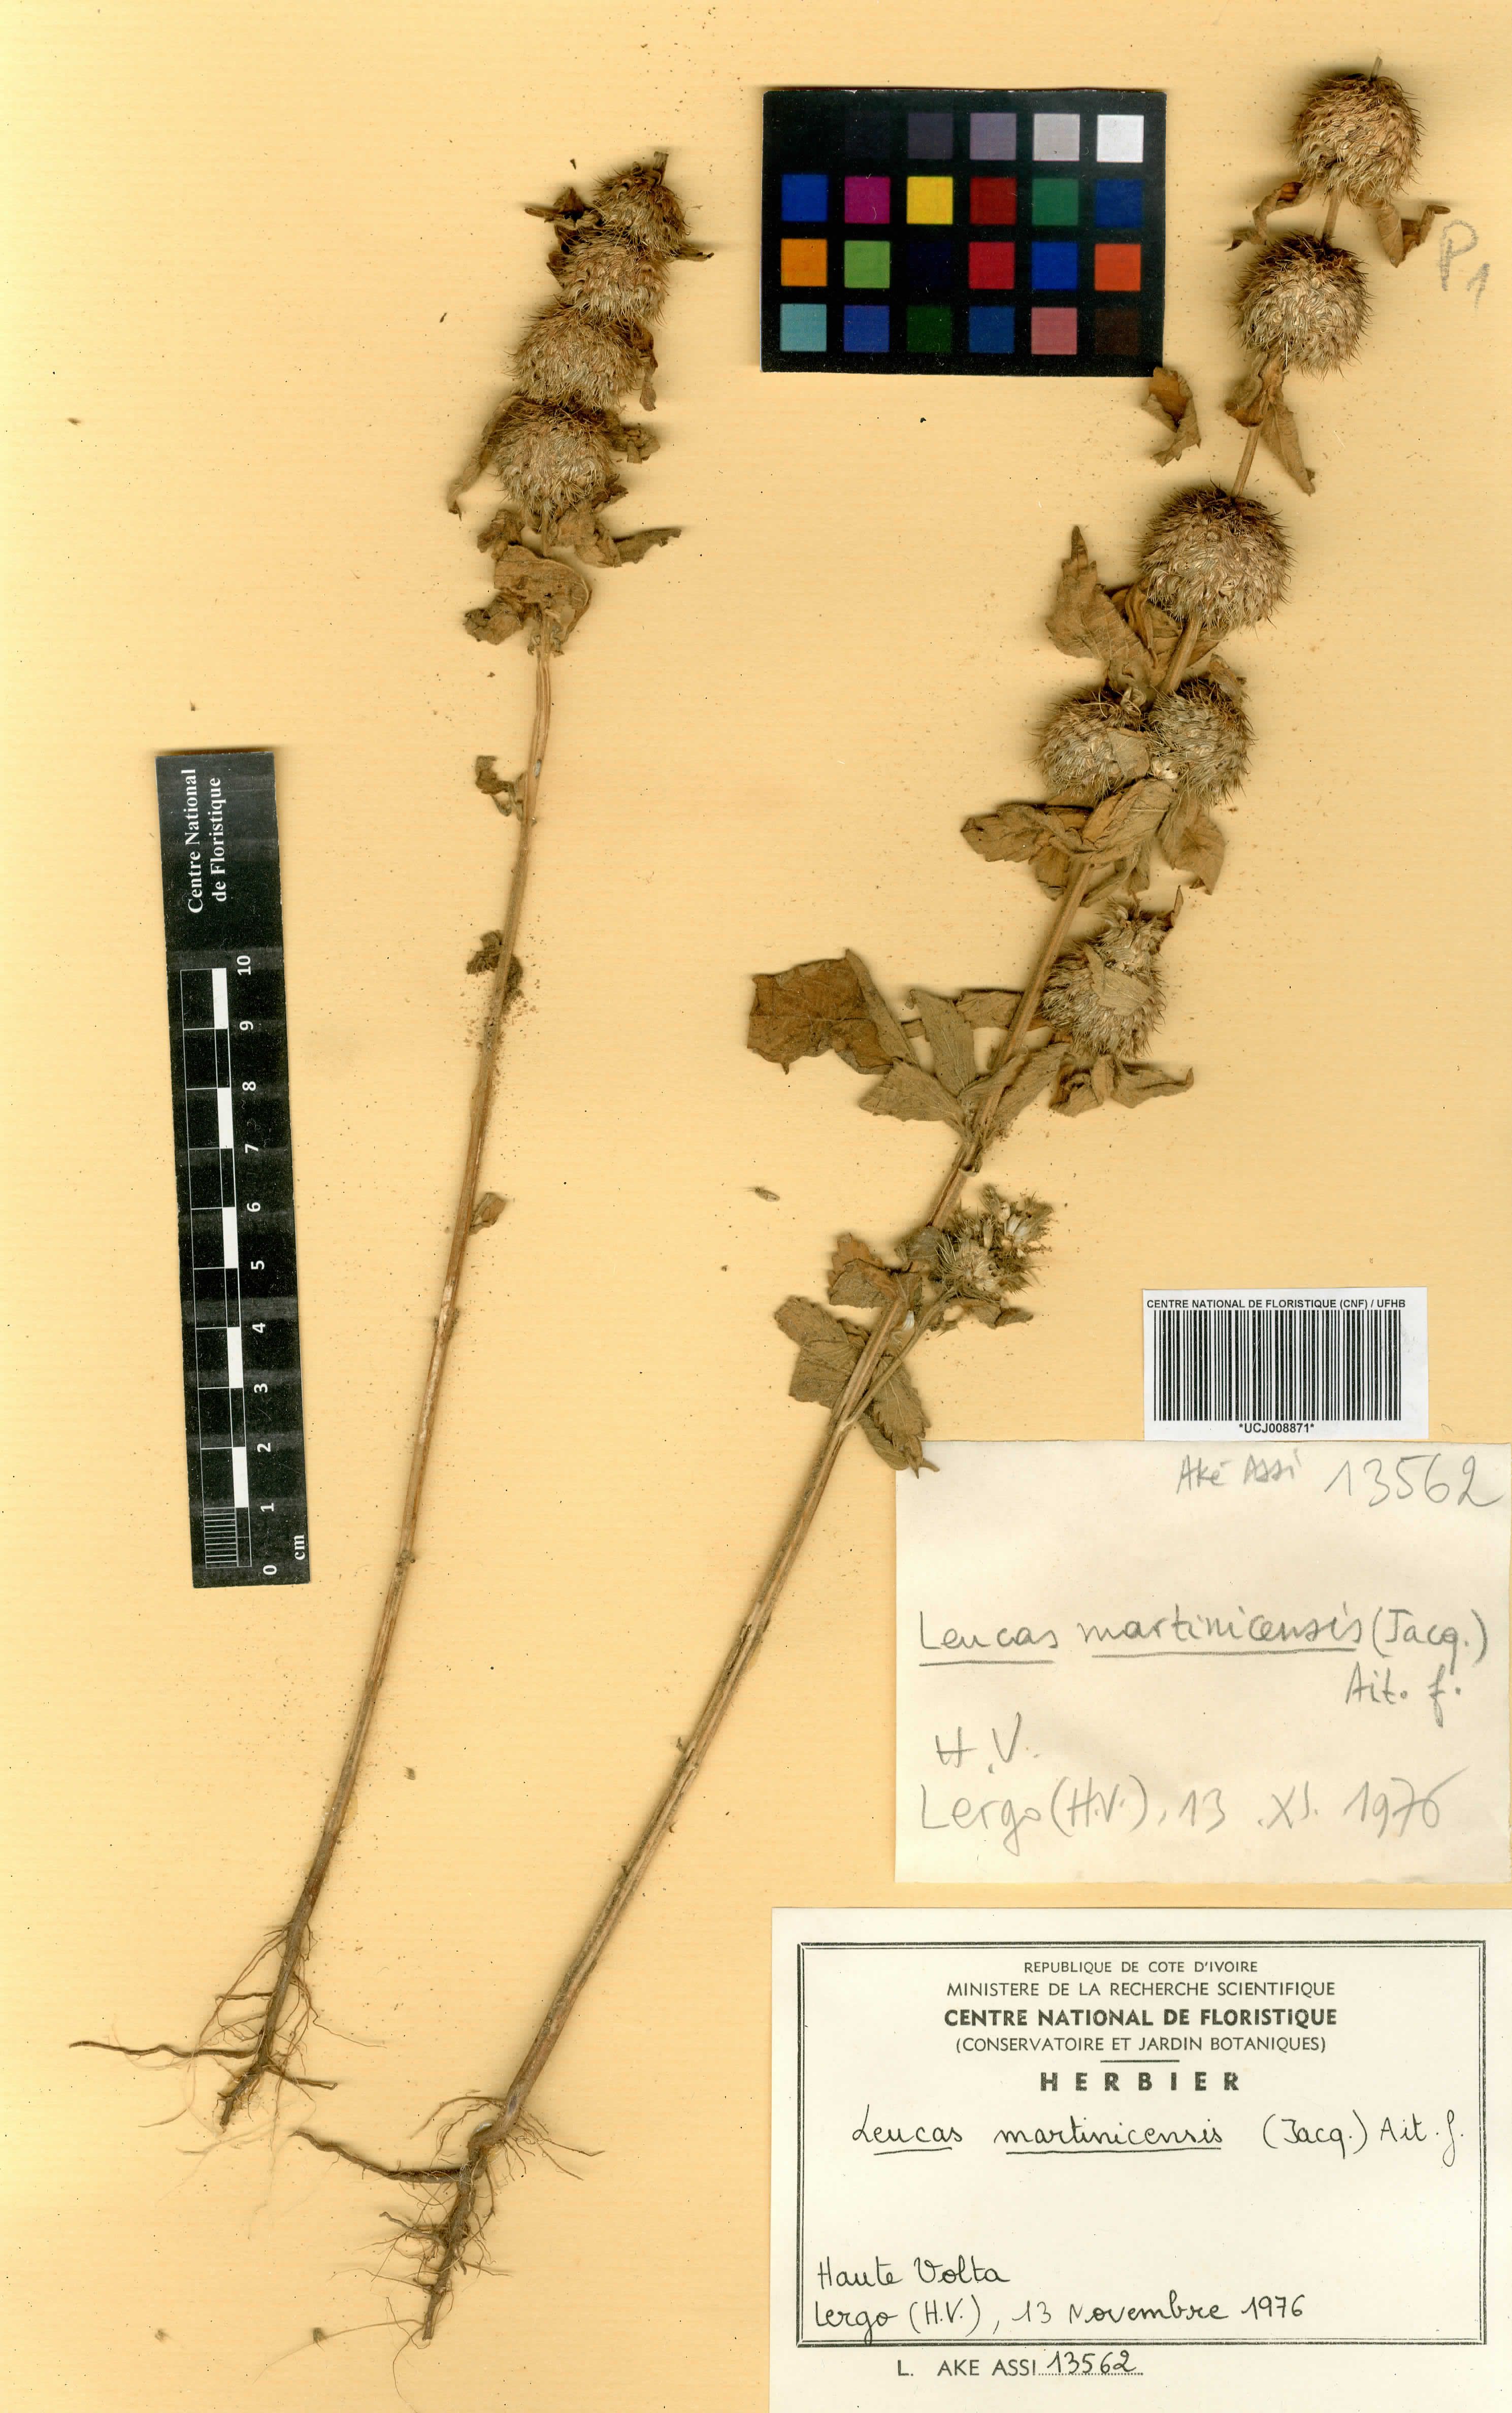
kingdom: Plantae
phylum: Tracheophyta
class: Magnoliopsida
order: Lamiales
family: Lamiaceae
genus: Leucas
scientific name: Leucas martinicensis
